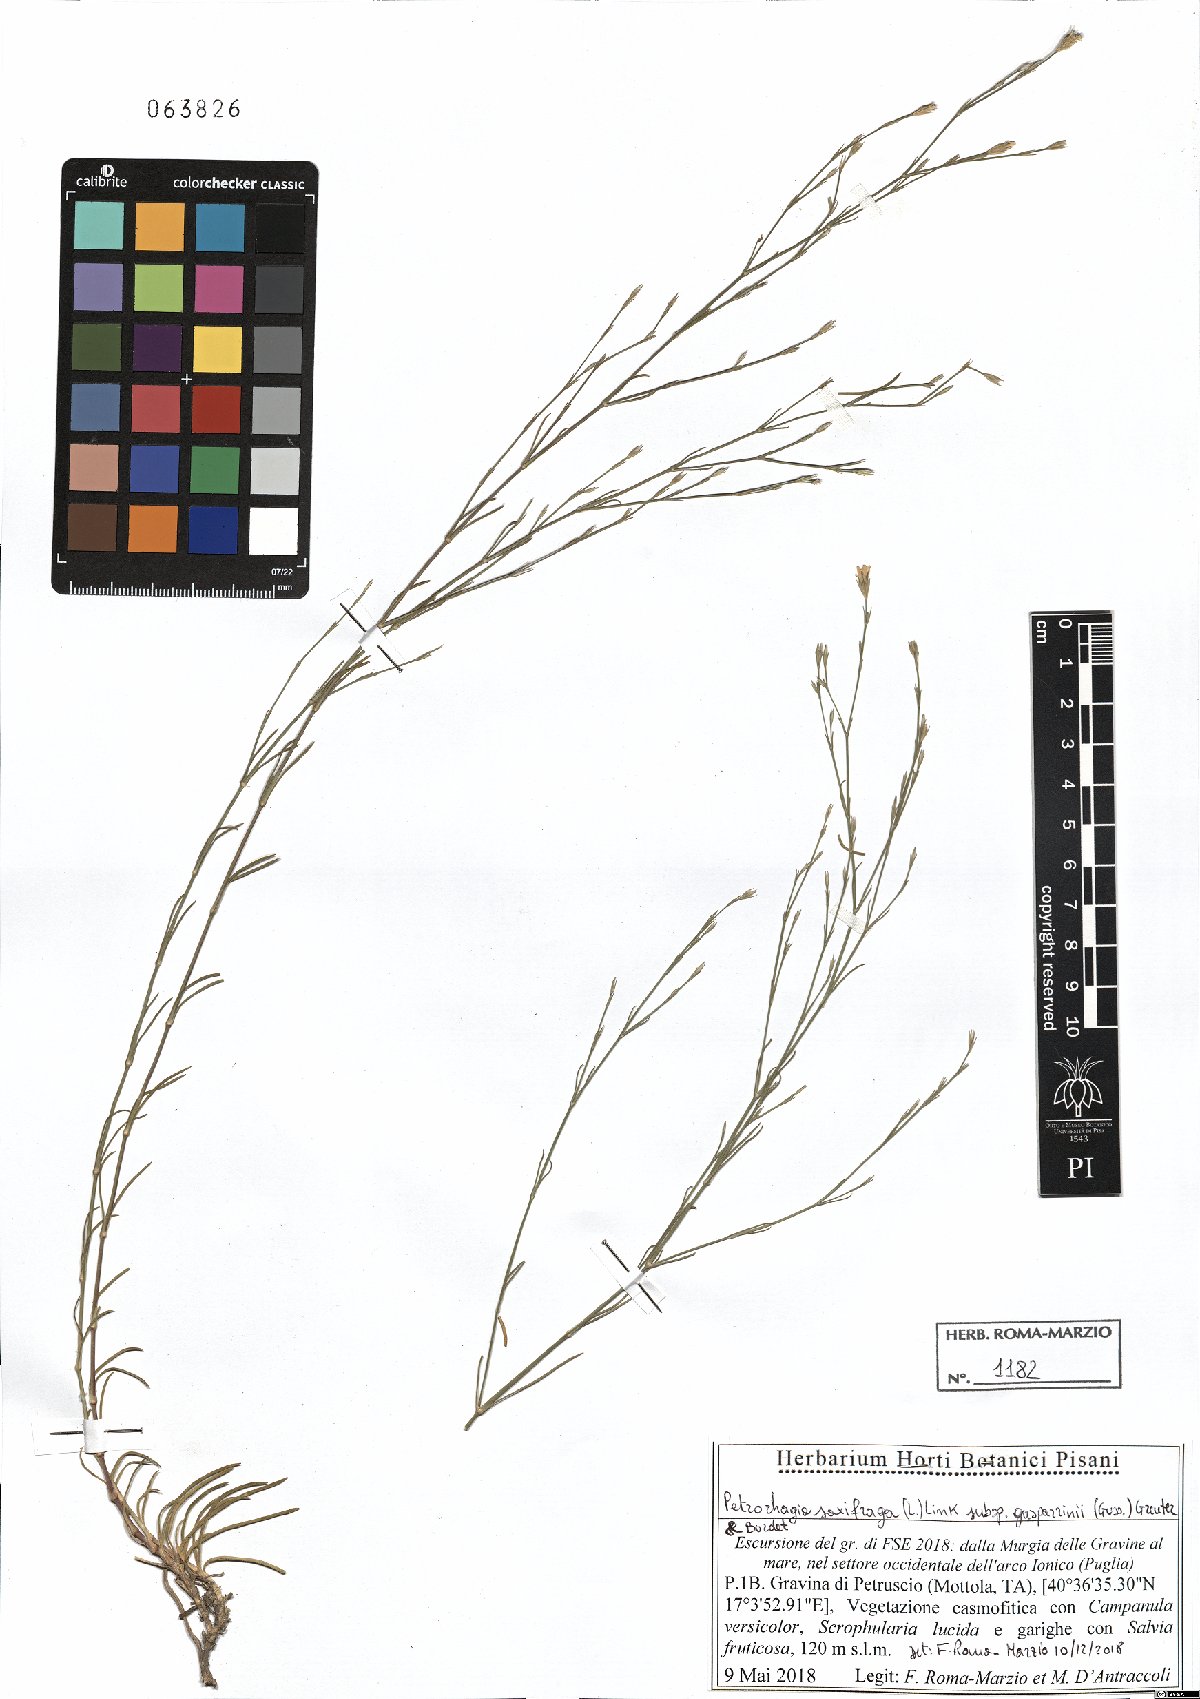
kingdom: Plantae
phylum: Tracheophyta
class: Magnoliopsida
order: Caryophyllales
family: Caryophyllaceae
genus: Petrorhagia
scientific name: Petrorhagia saxifraga
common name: Tunicflower
